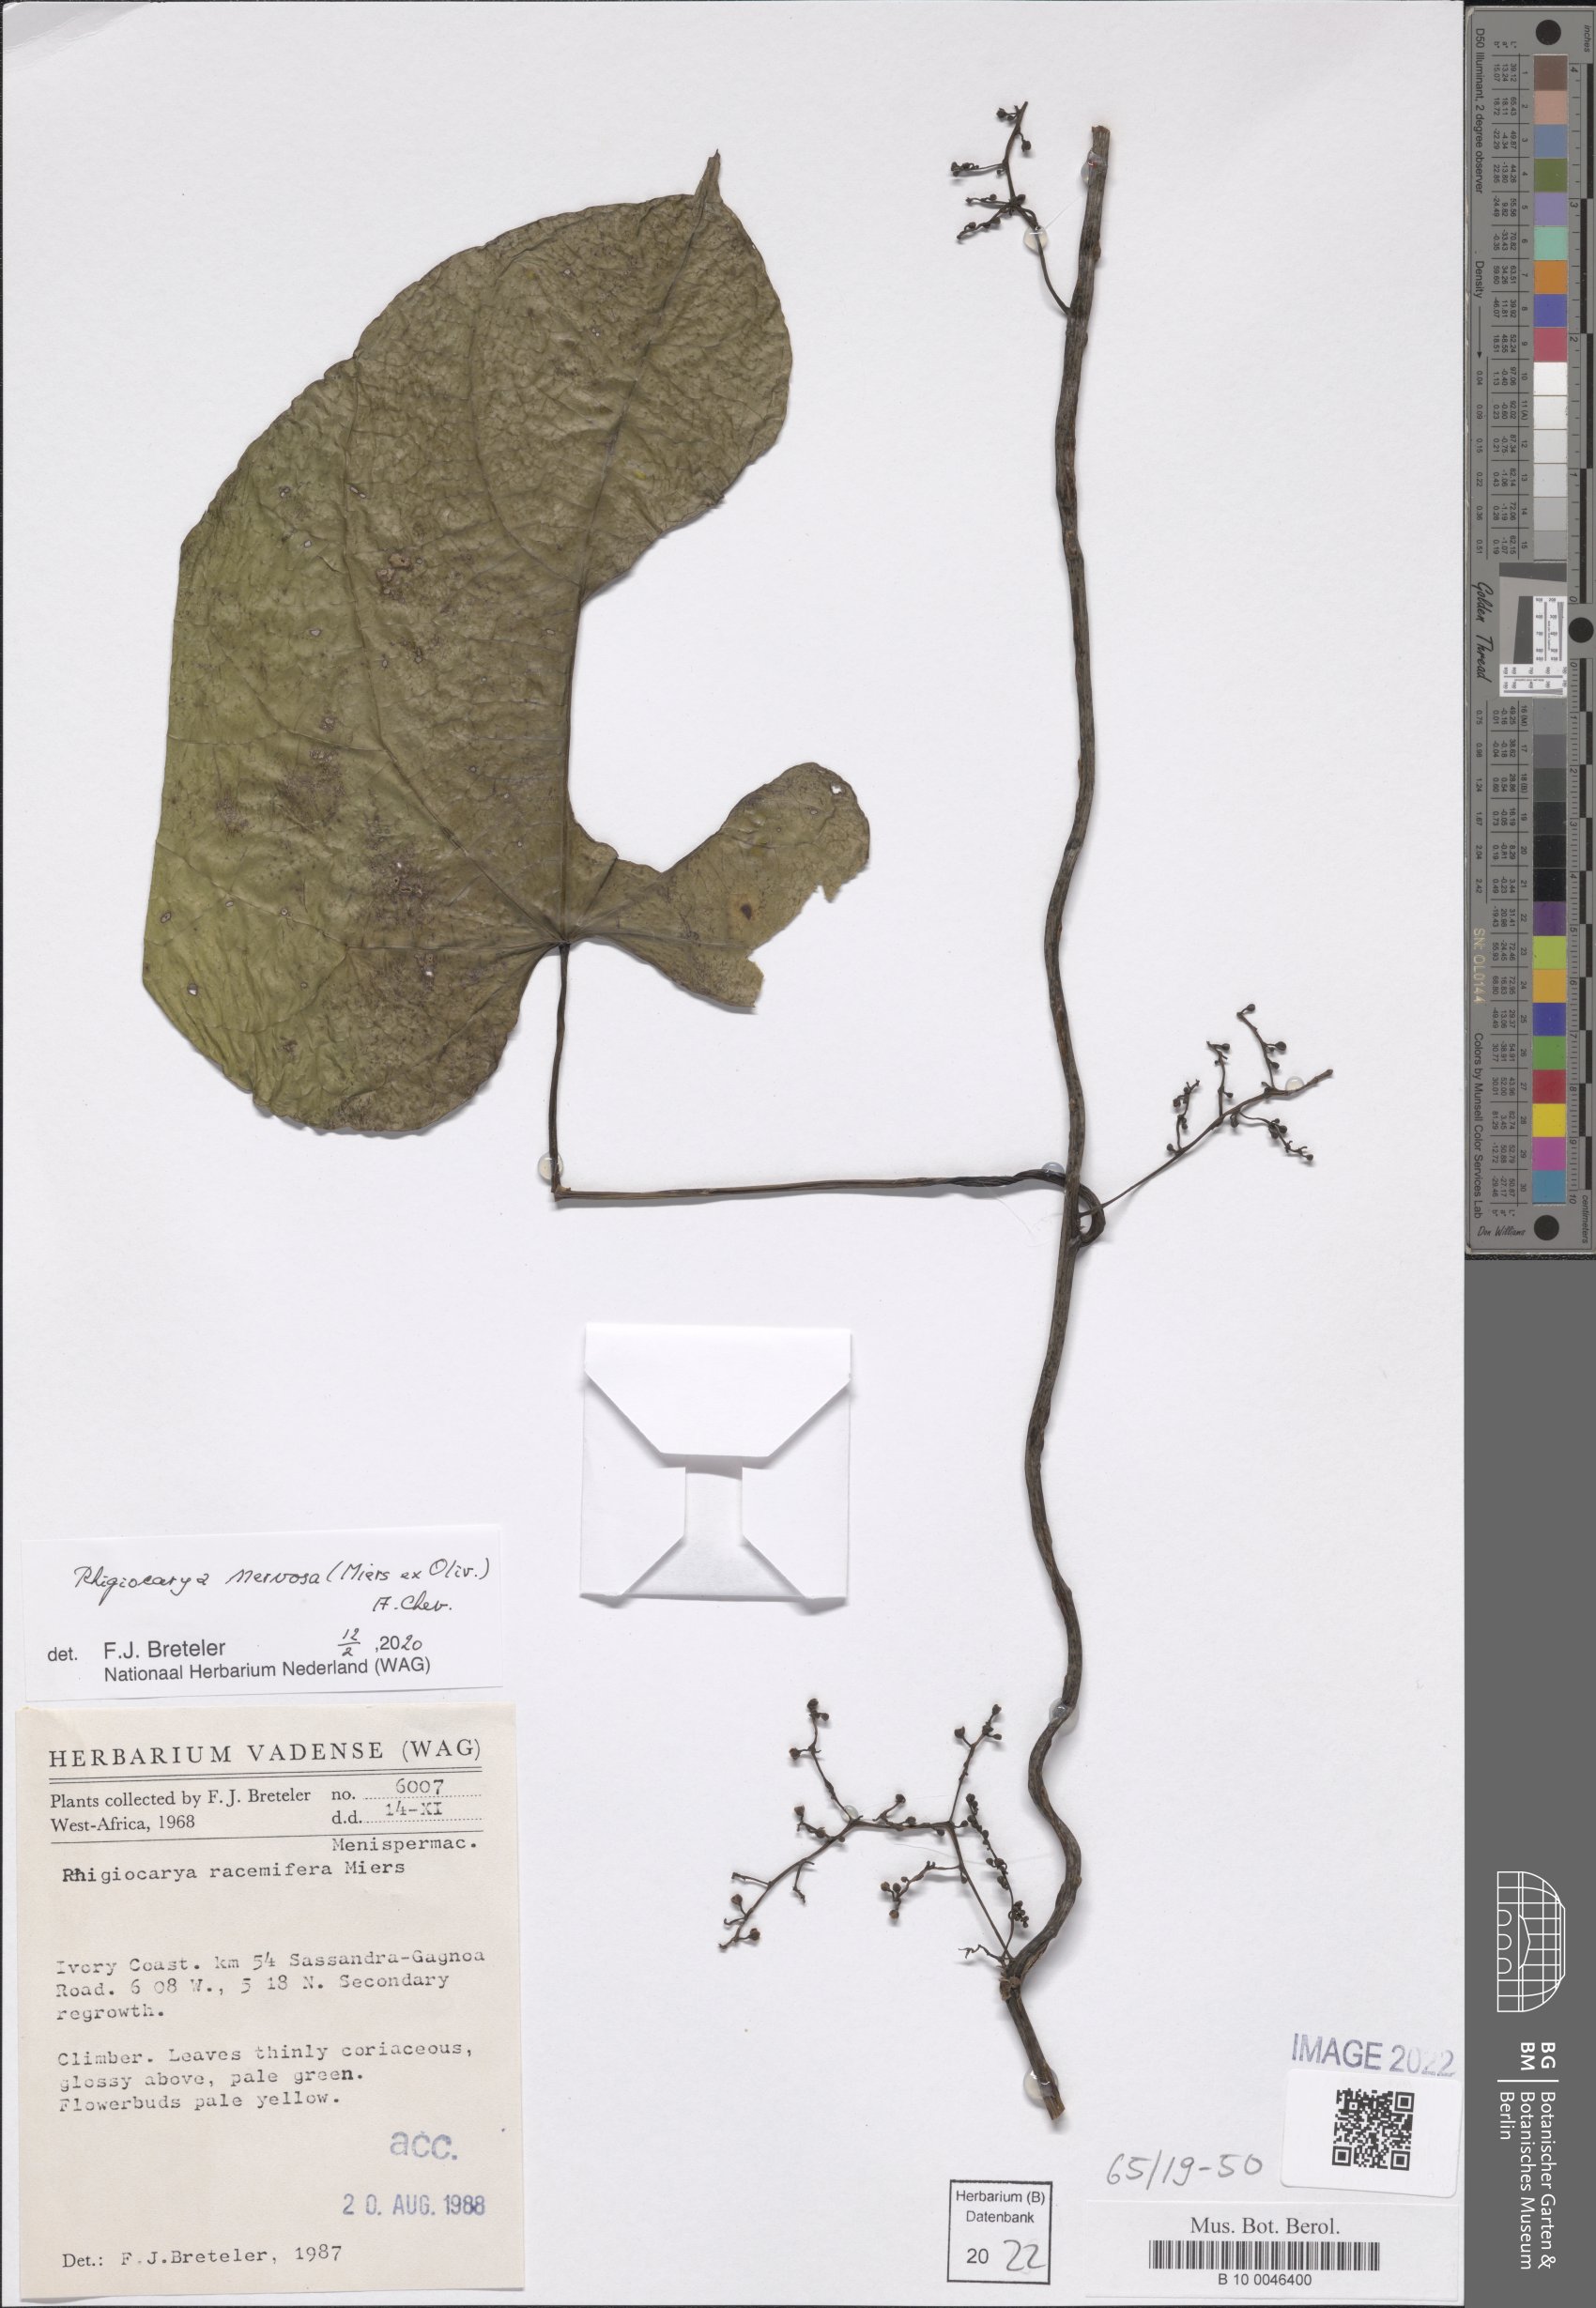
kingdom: Plantae
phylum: Tracheophyta
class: Magnoliopsida
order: Ranunculales
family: Menispermaceae
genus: Rhigiocarya
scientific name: Rhigiocarya racemifera
